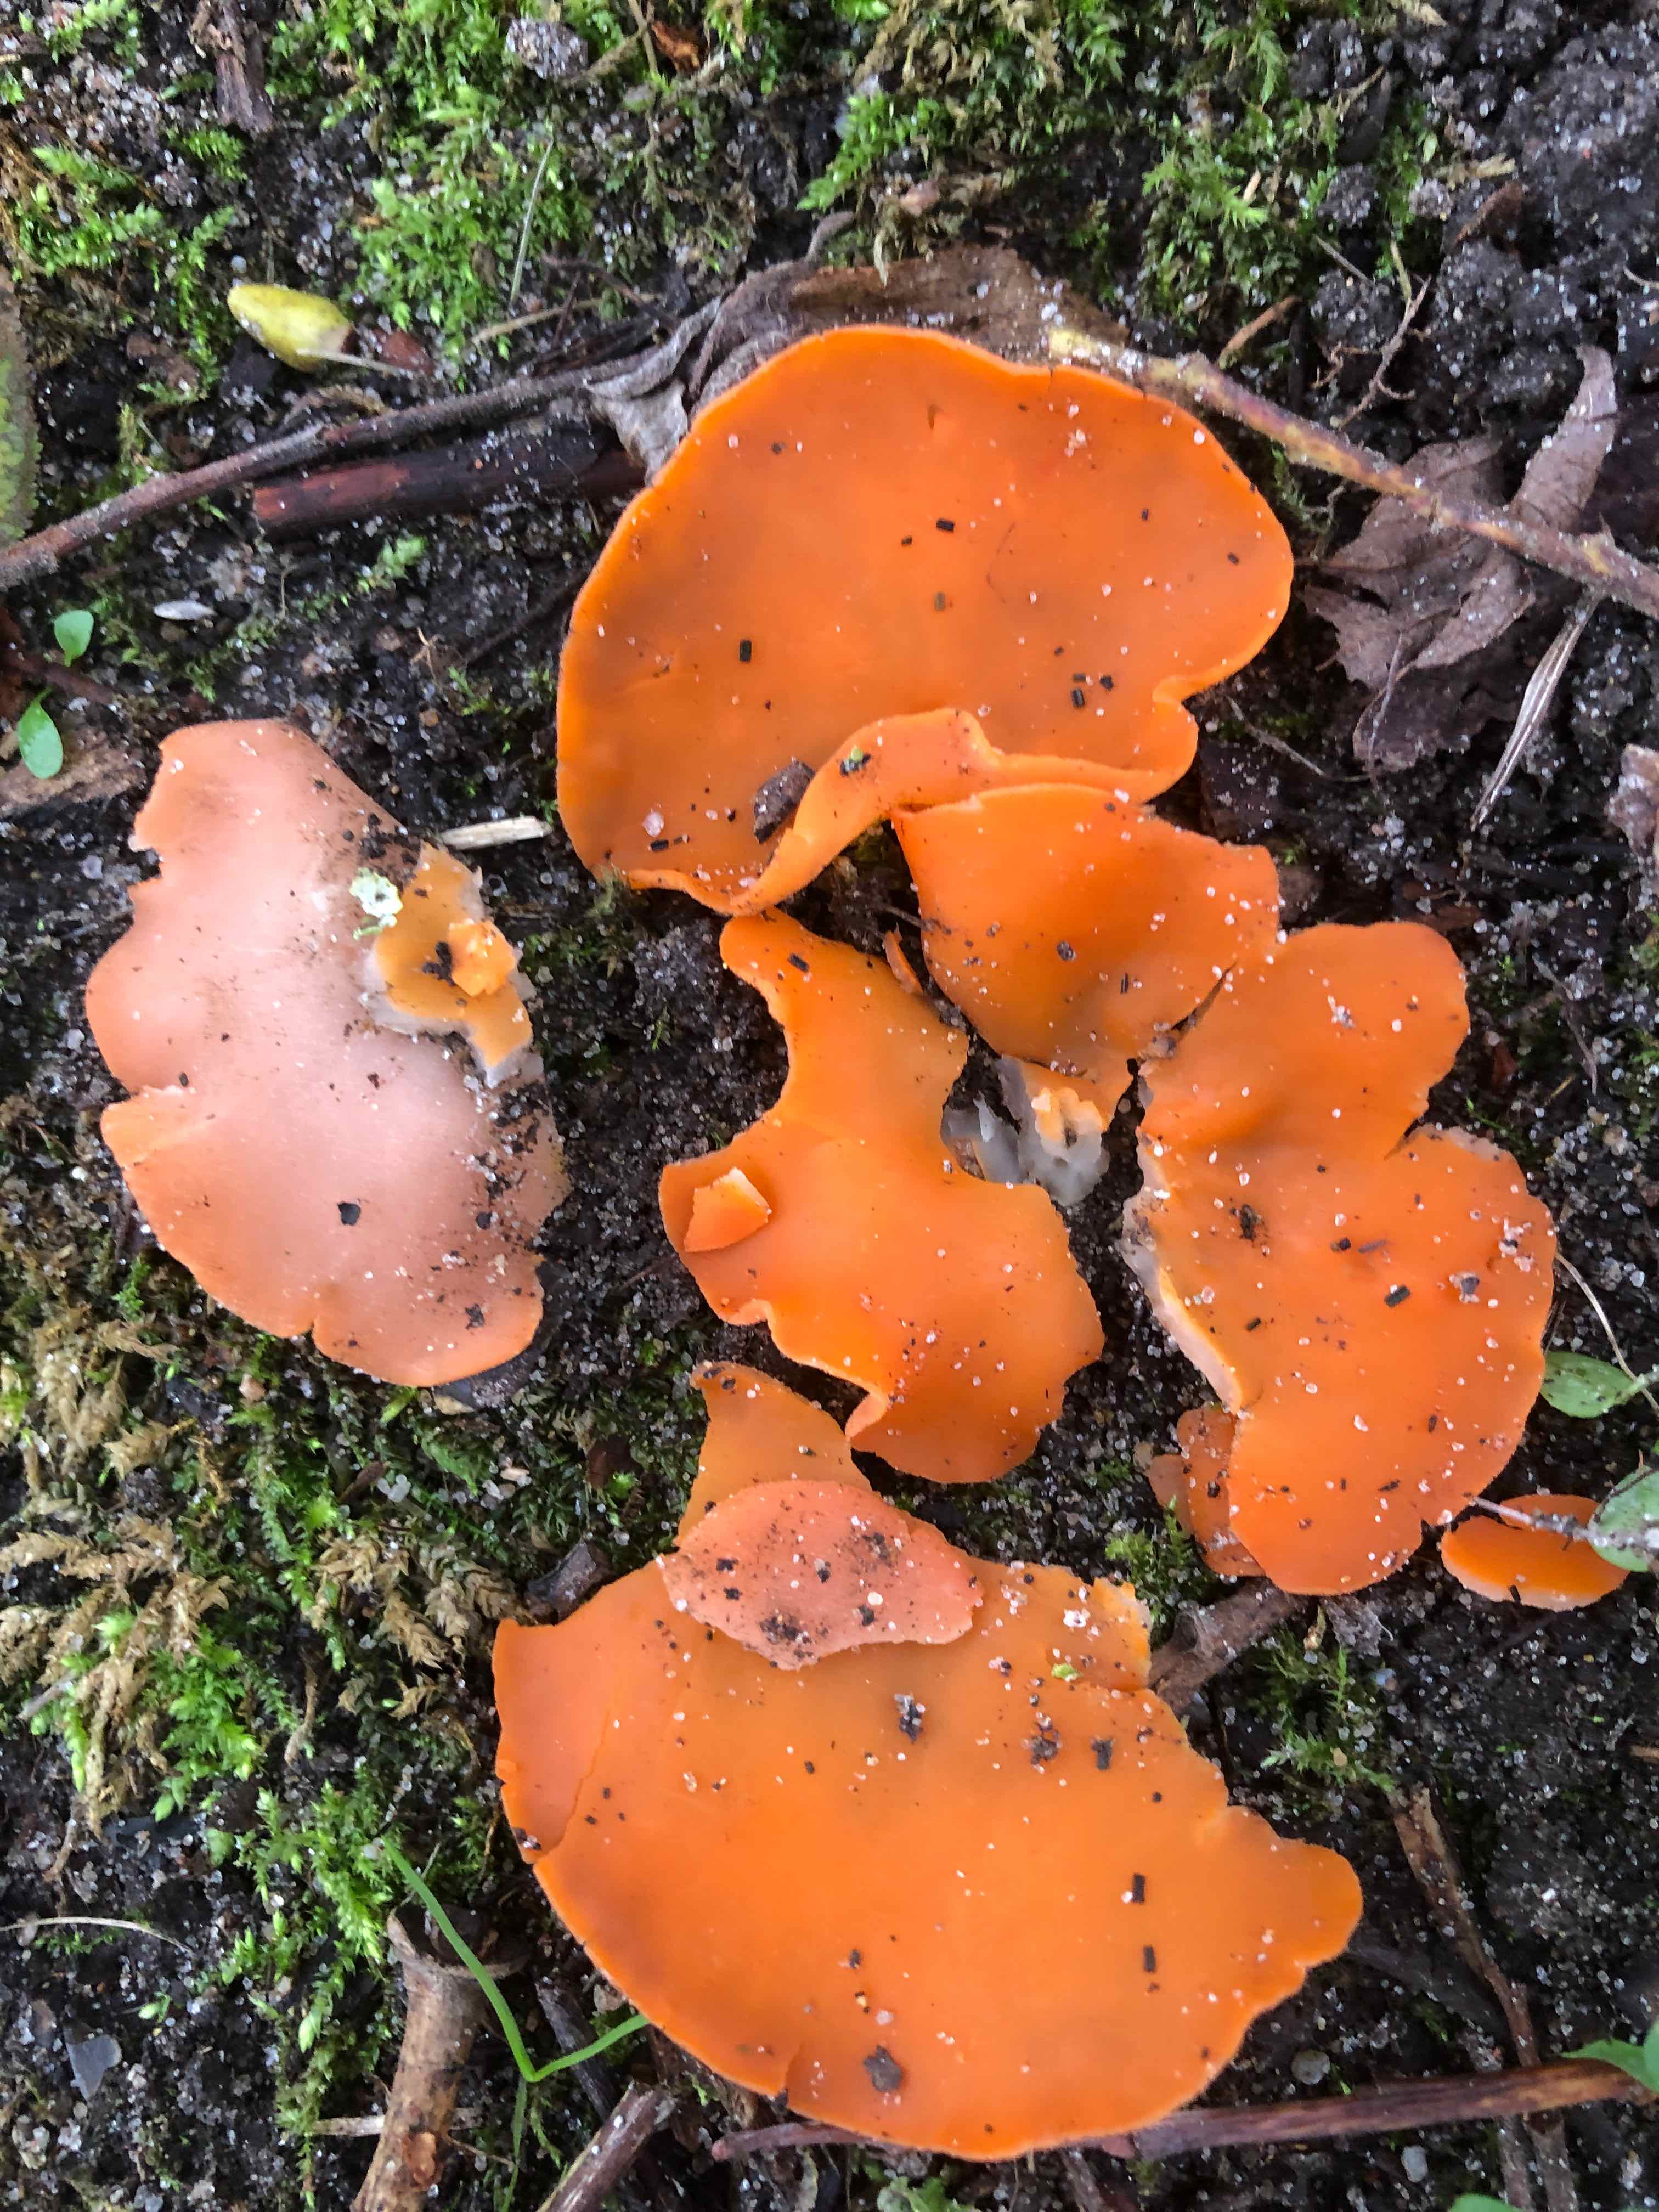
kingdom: Fungi
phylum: Ascomycota
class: Pezizomycetes
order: Pezizales
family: Pyronemataceae
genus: Aleuria
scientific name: Aleuria aurantia
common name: almindelig orangebæger
